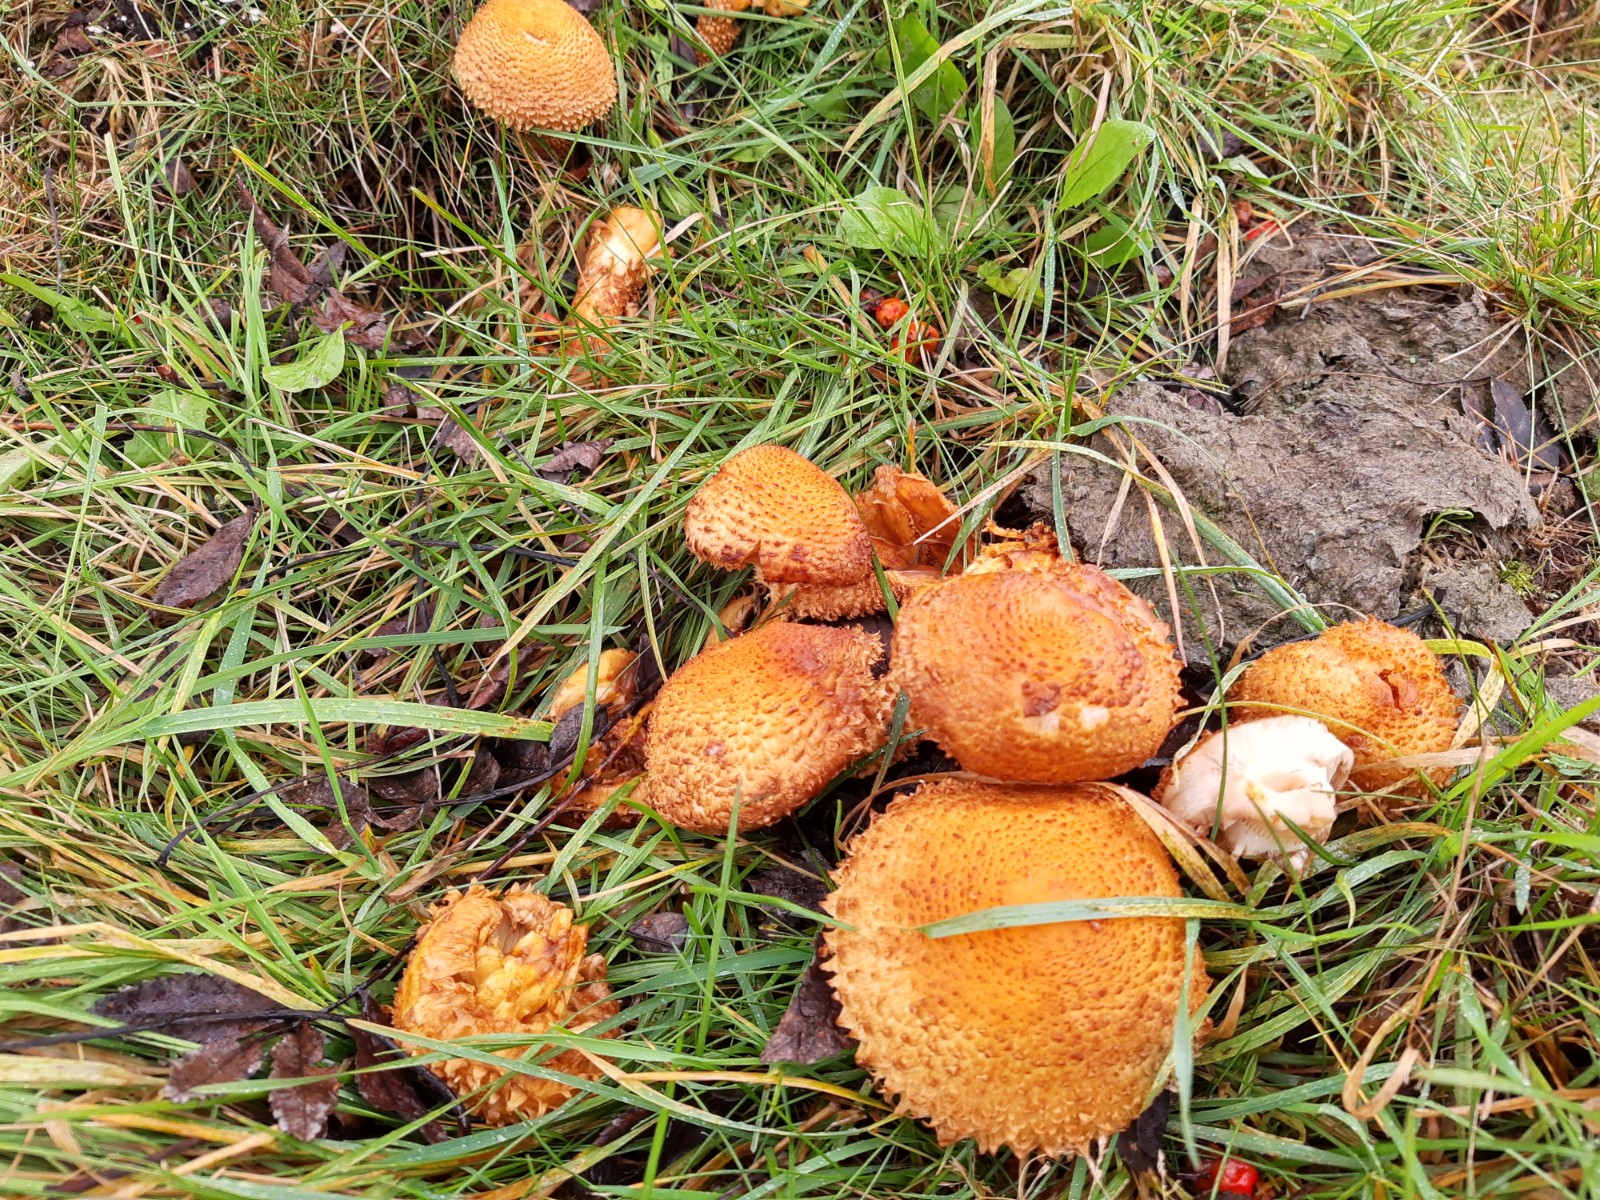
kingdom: Fungi
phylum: Basidiomycota
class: Agaricomycetes
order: Agaricales
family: Strophariaceae
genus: Pholiota
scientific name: Pholiota squarrosa
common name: krumskællet skælhat
